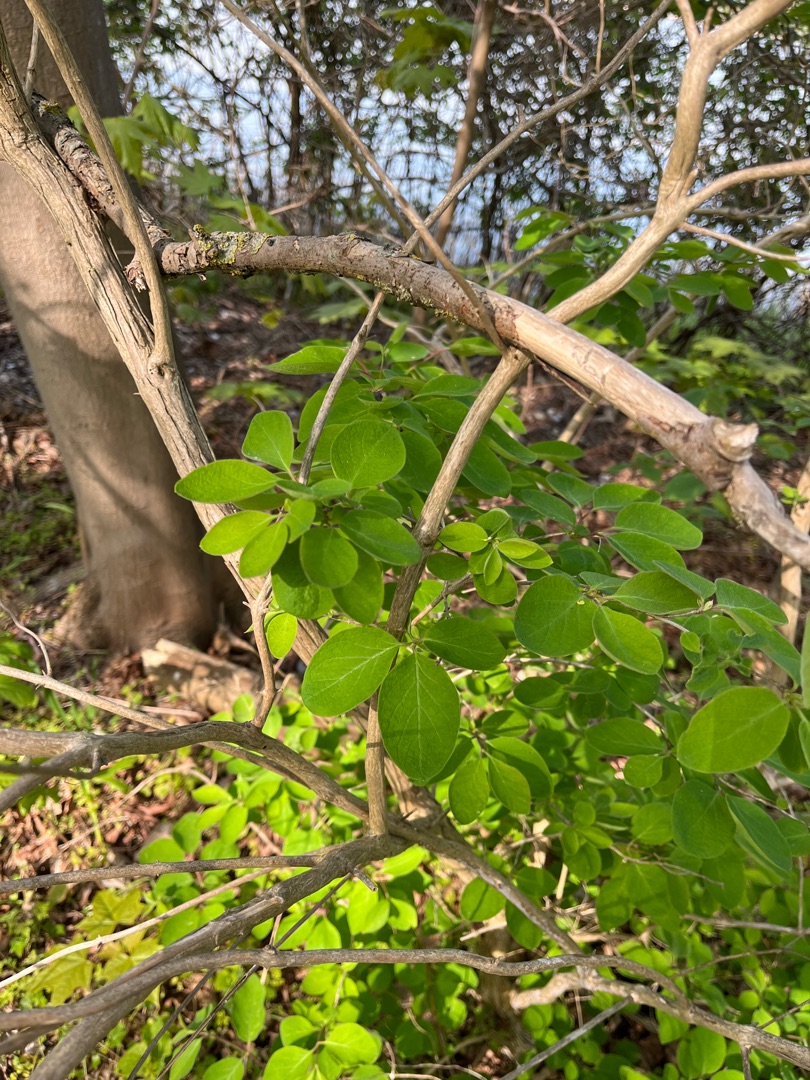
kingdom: Plantae
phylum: Tracheophyta
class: Magnoliopsida
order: Dipsacales
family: Caprifoliaceae
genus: Lonicera
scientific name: Lonicera xylosteum
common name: Dunet gedeblad
